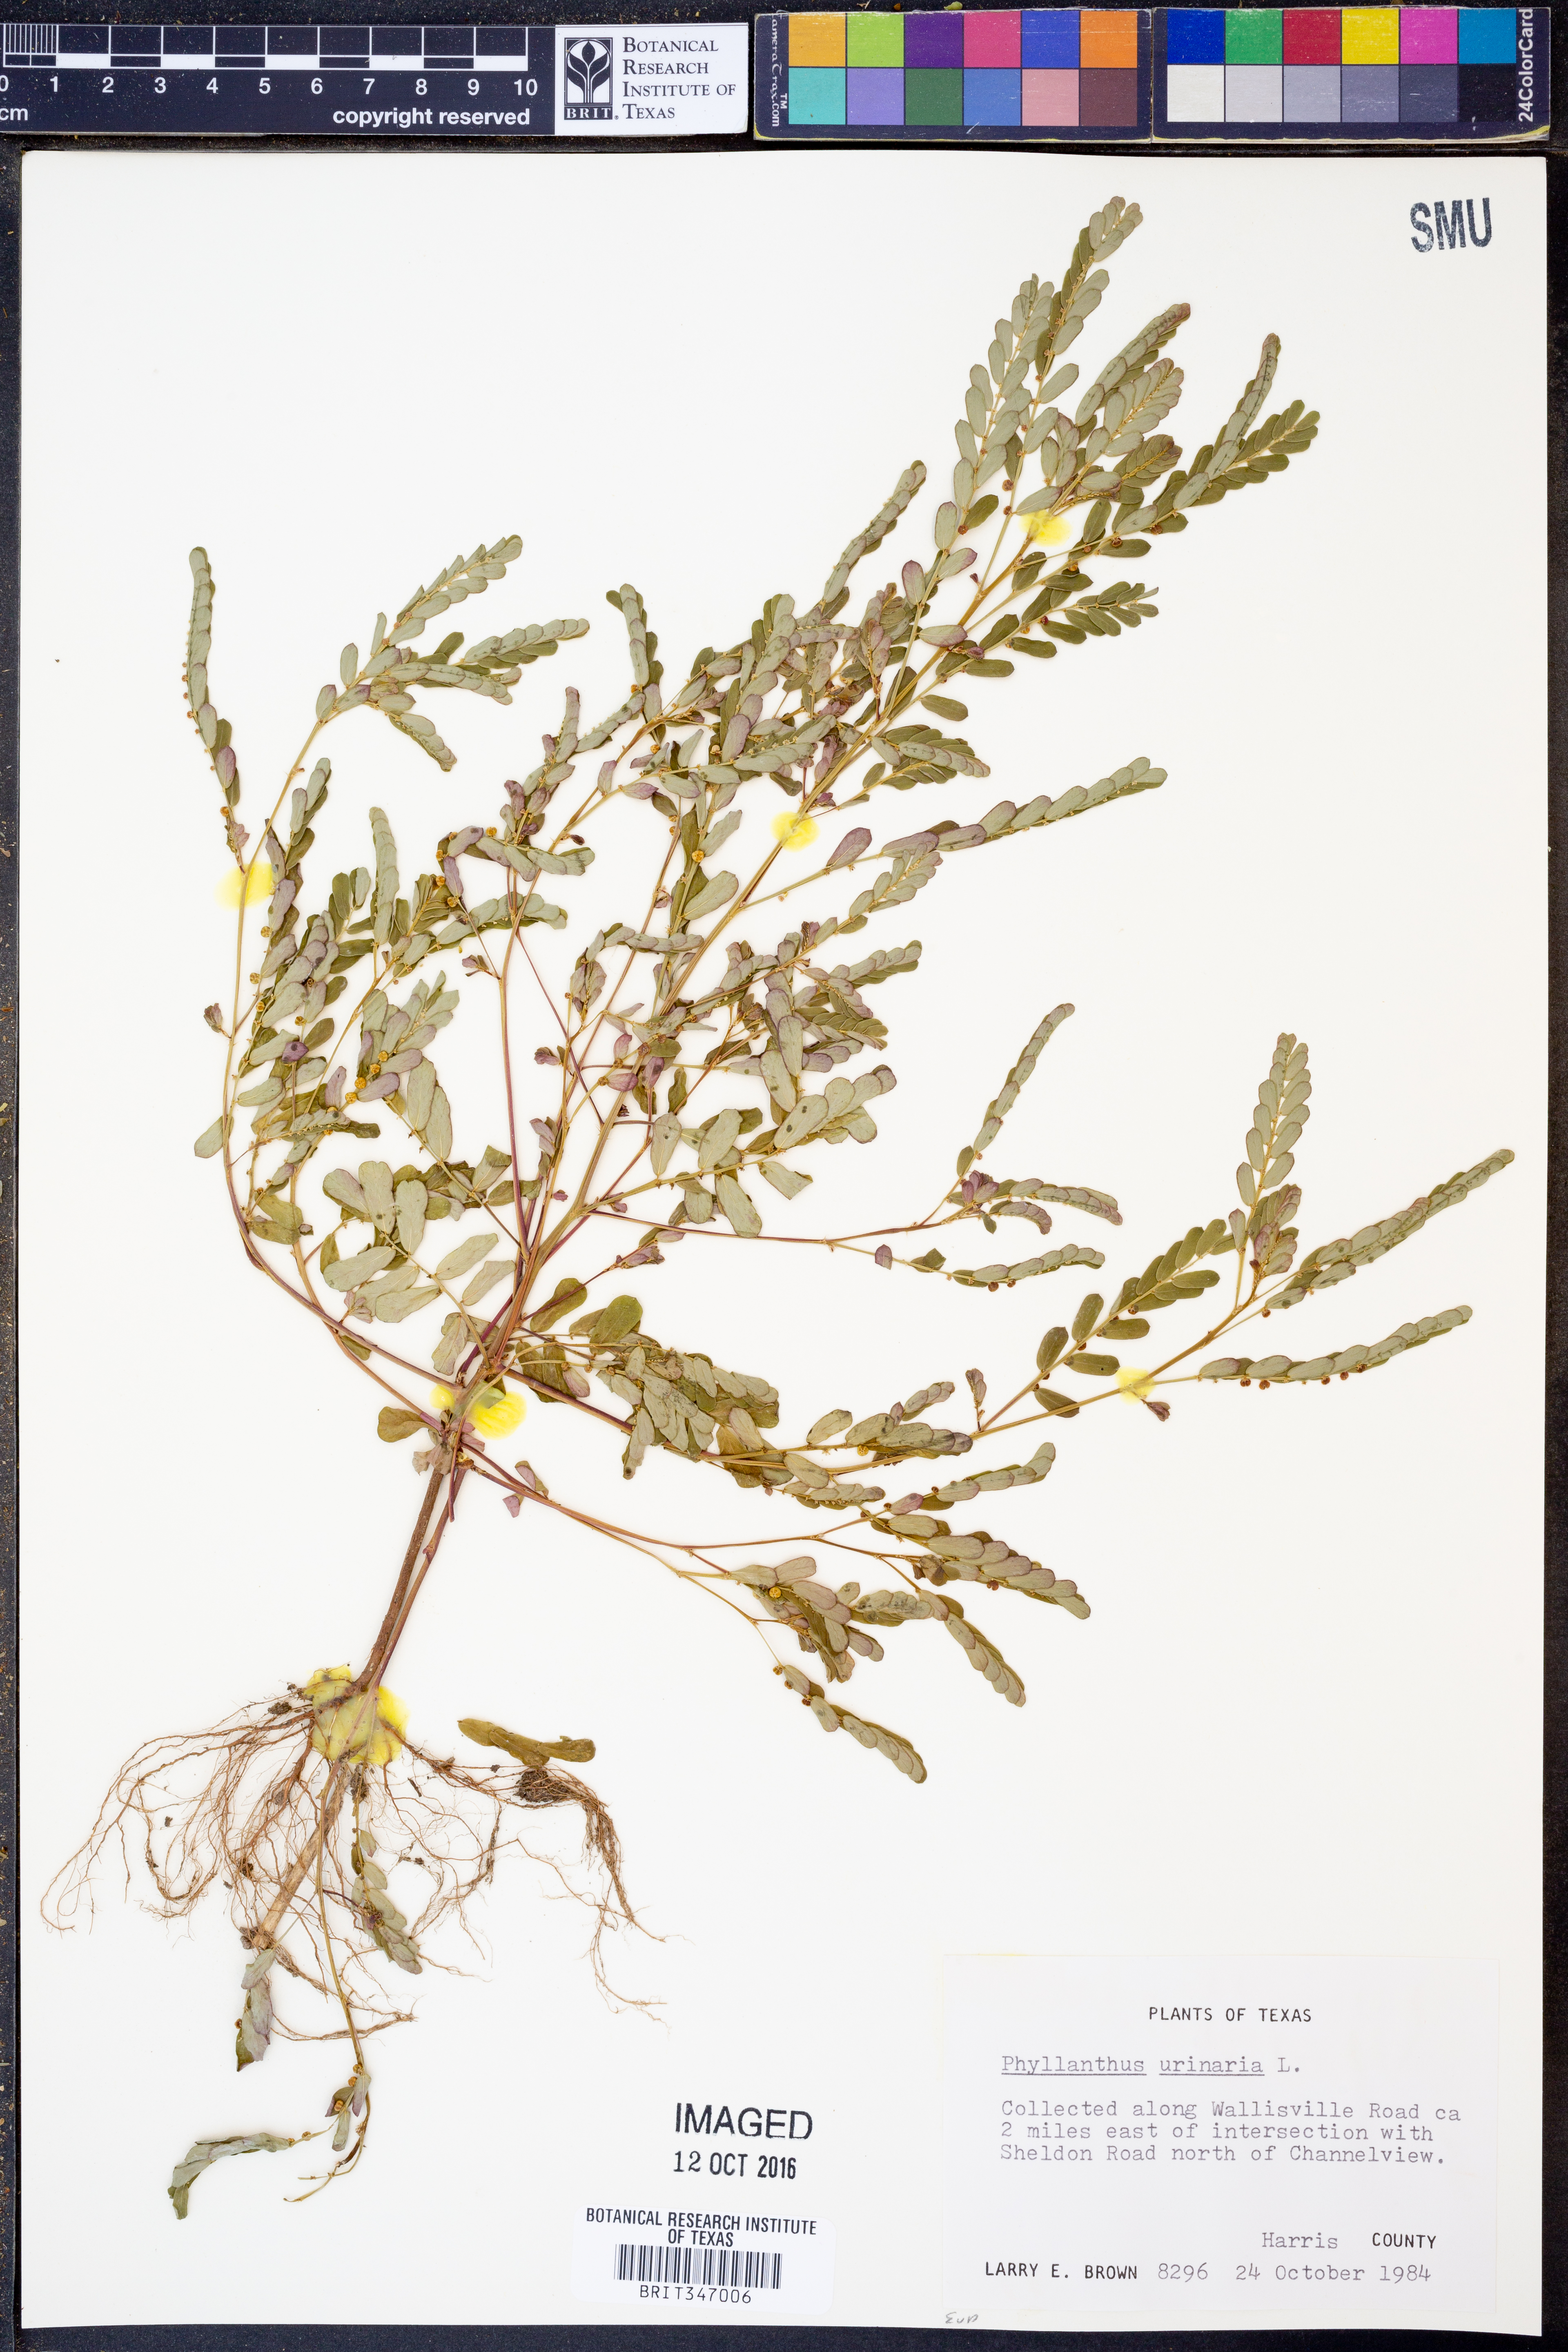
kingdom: Plantae
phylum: Tracheophyta
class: Magnoliopsida
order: Malpighiales
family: Phyllanthaceae
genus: Phyllanthus
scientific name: Phyllanthus urinaria
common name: Chamber bitter
